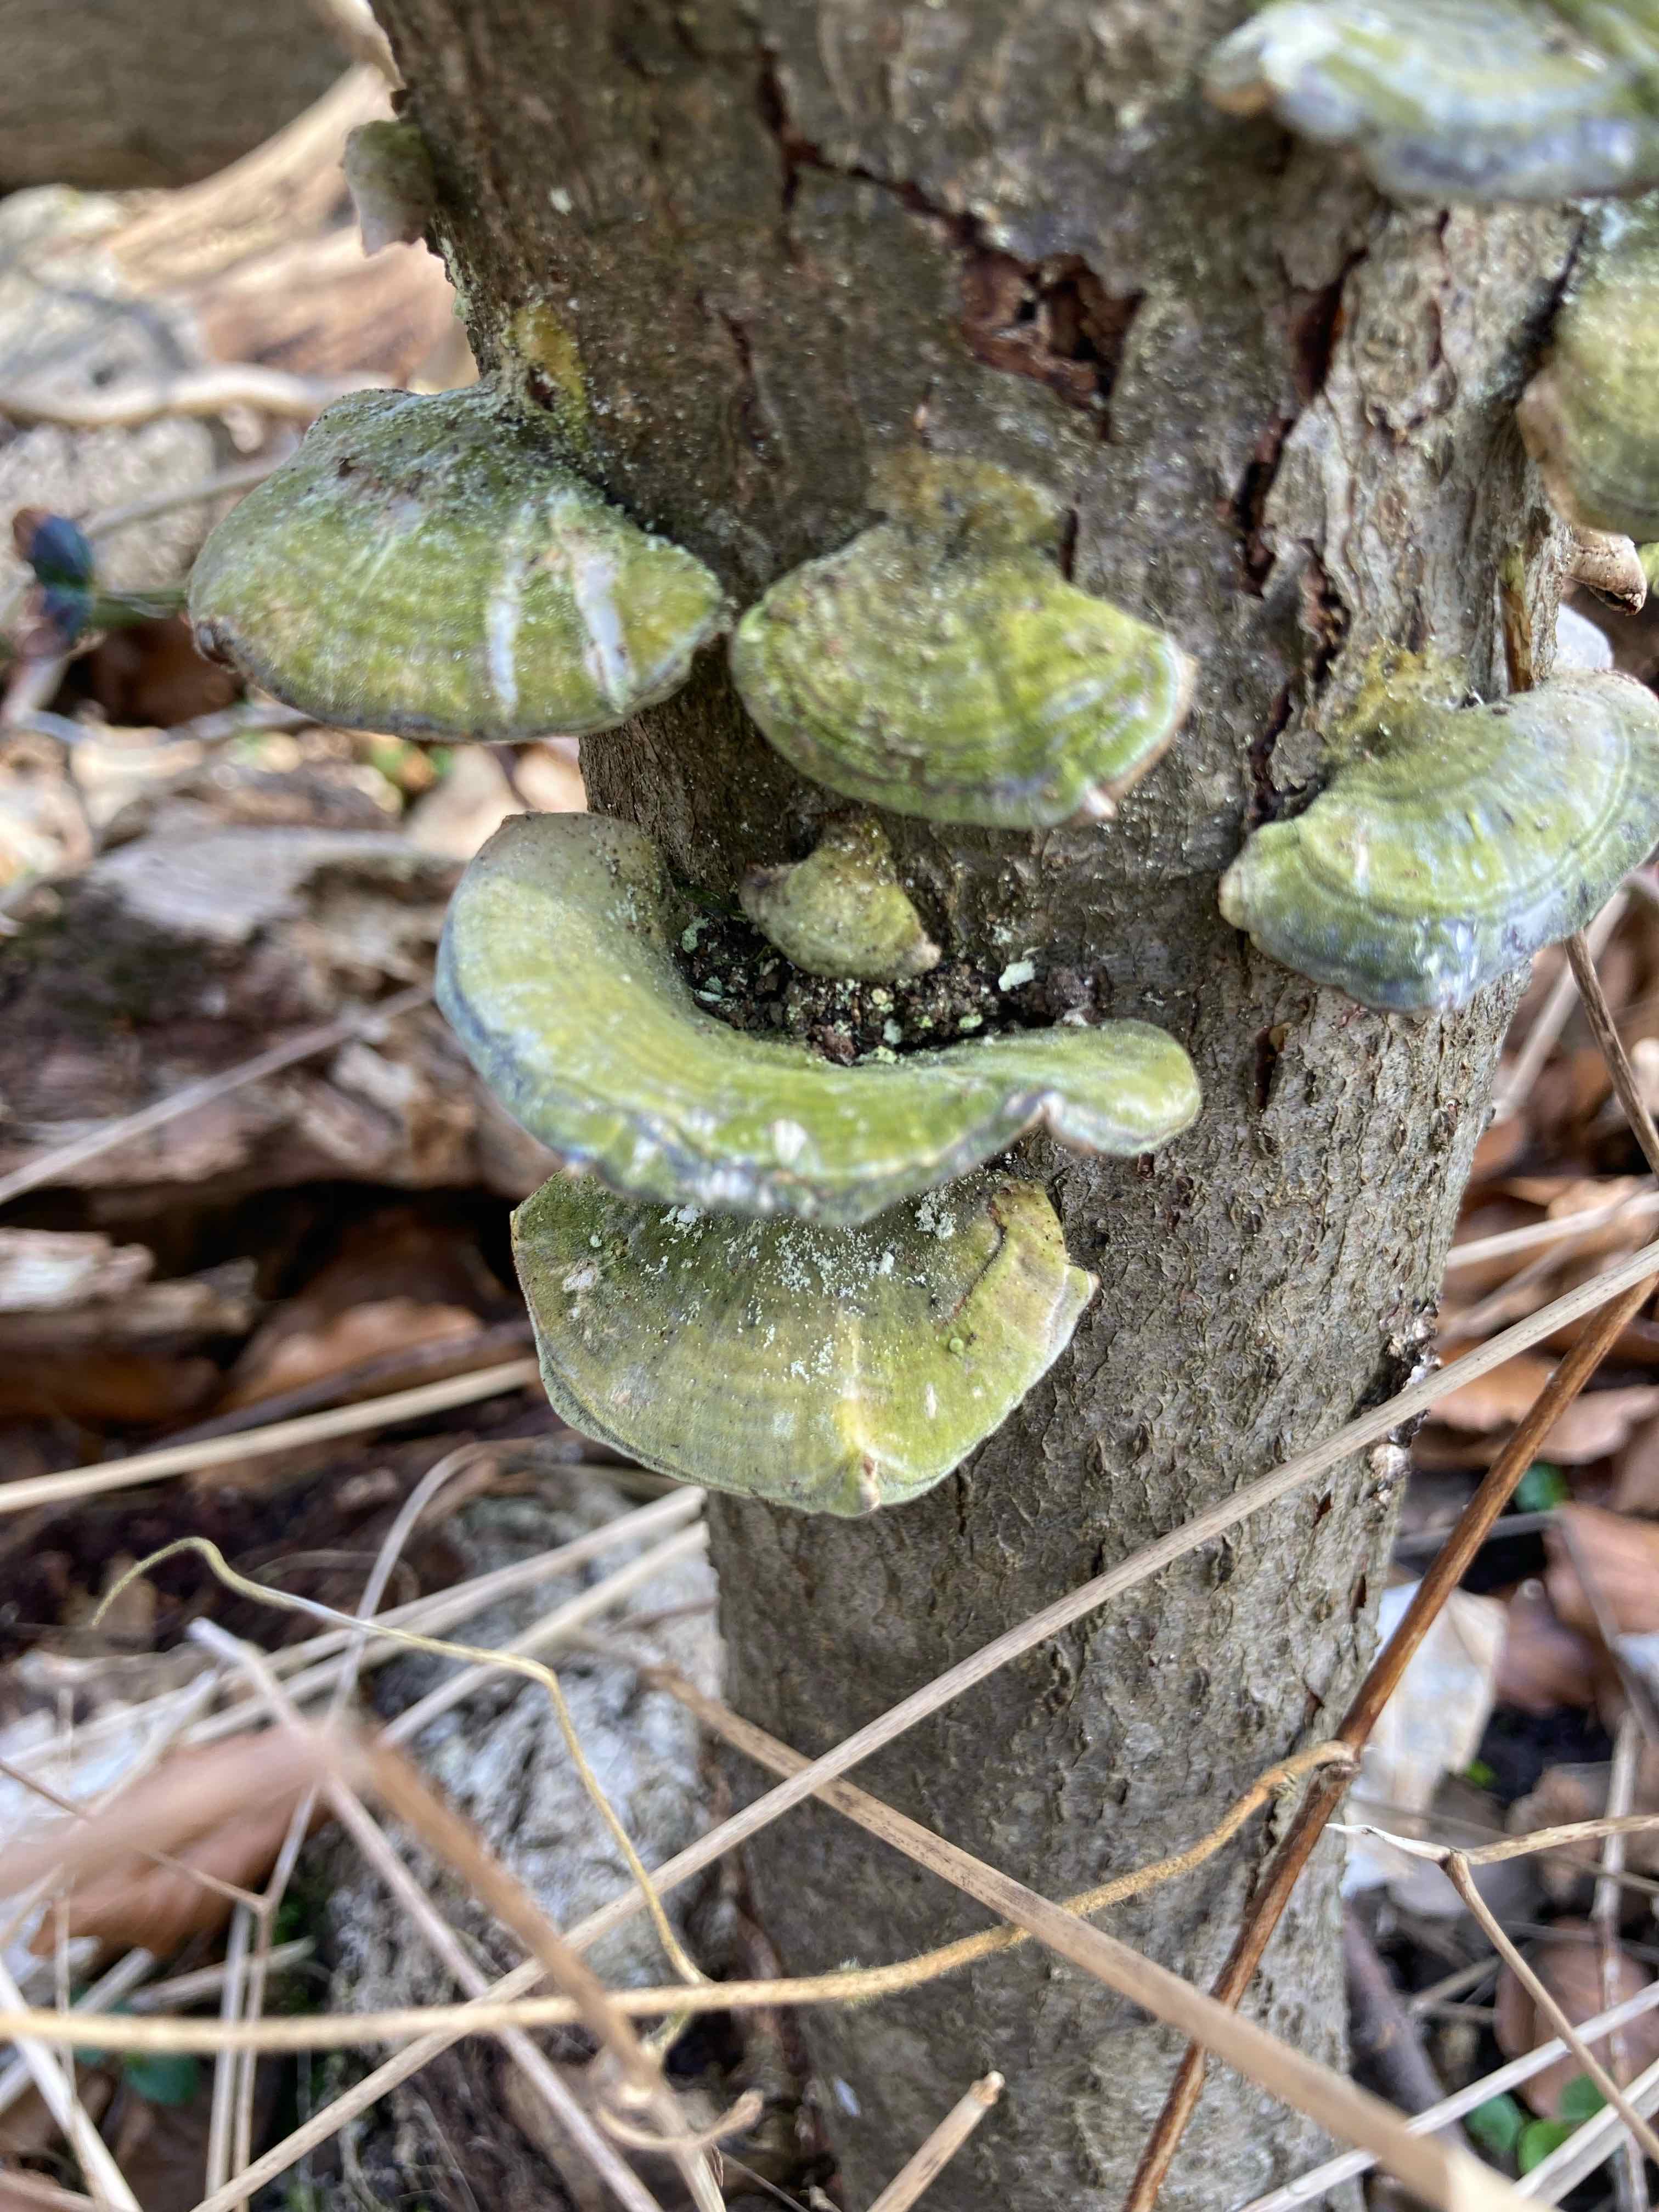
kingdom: Fungi
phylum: Basidiomycota
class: Agaricomycetes
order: Polyporales
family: Polyporaceae
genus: Trametes
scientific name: Trametes hirsuta
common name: håret læderporesvamp
